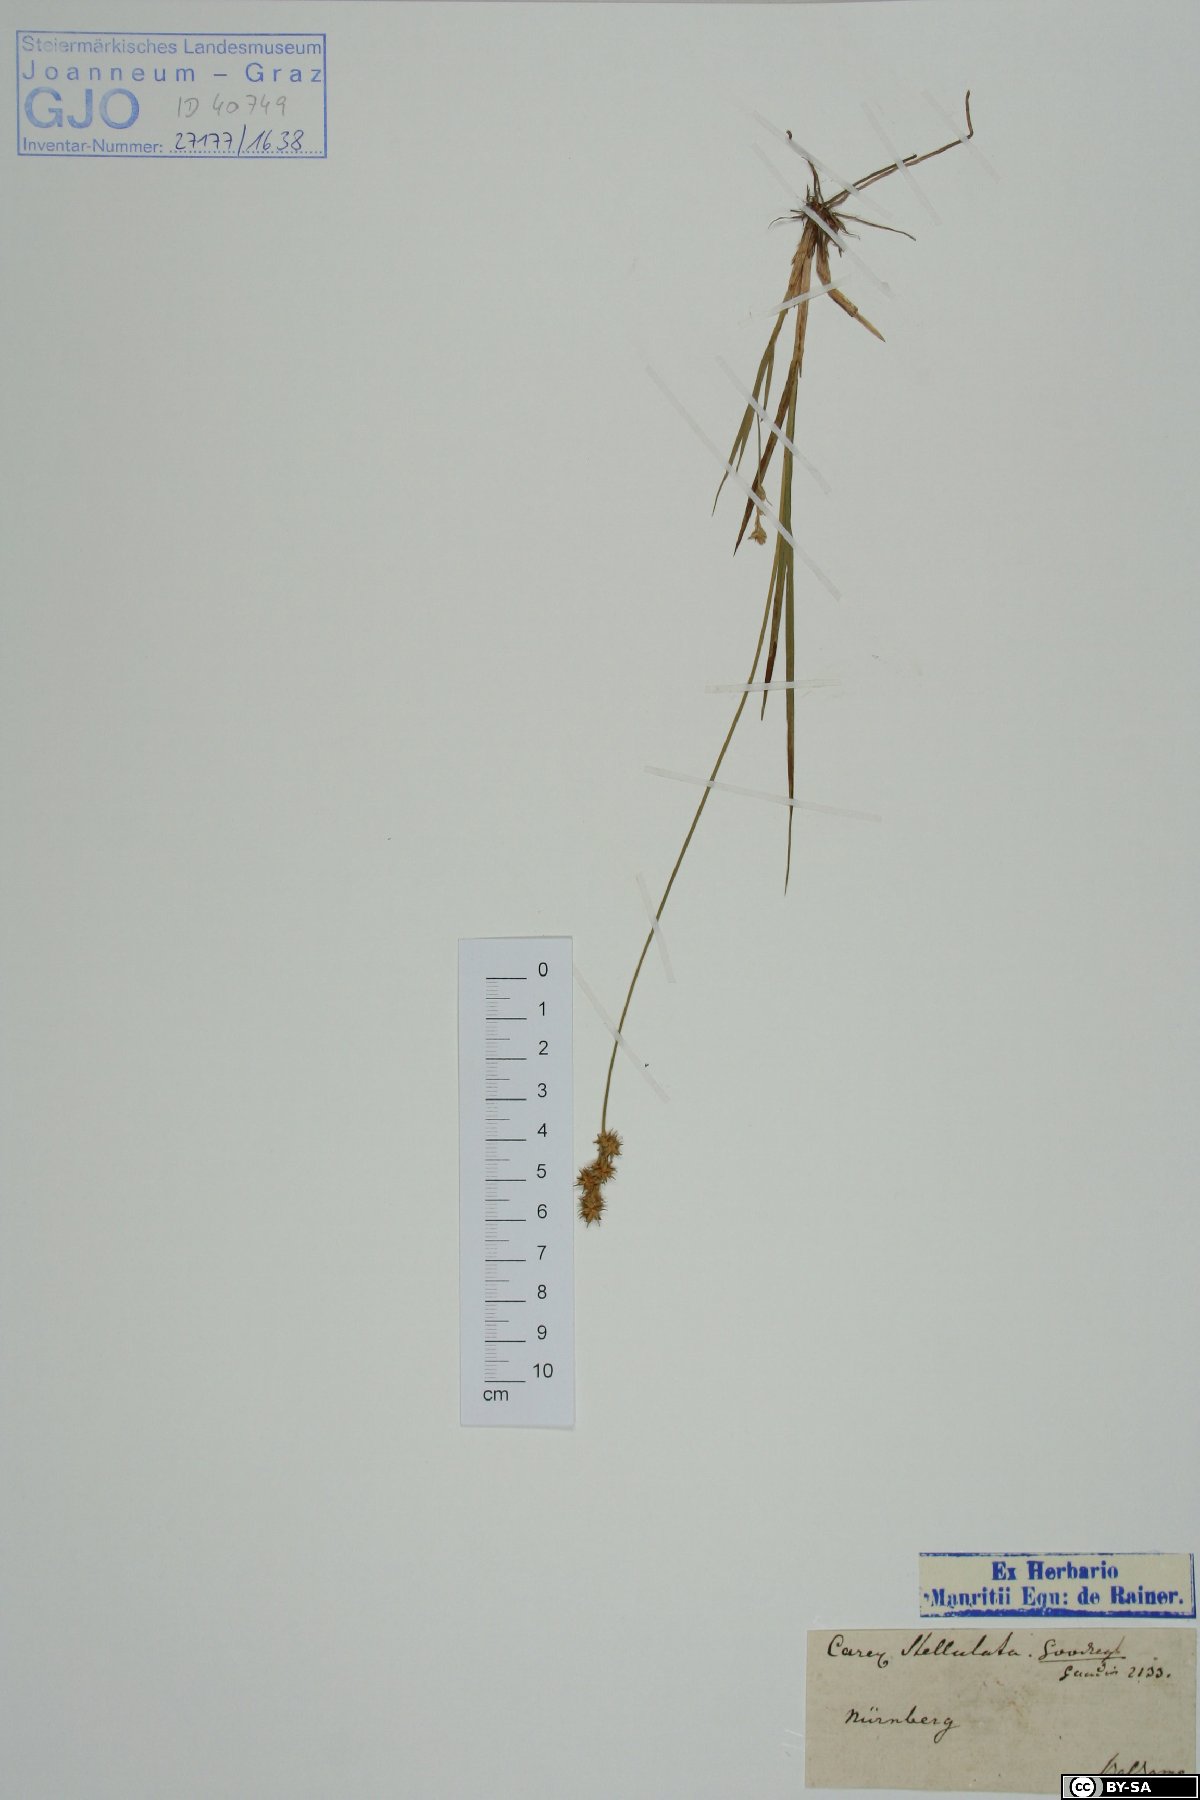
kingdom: Plantae
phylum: Tracheophyta
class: Liliopsida
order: Poales
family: Cyperaceae
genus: Carex
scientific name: Carex echinata
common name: Star sedge
